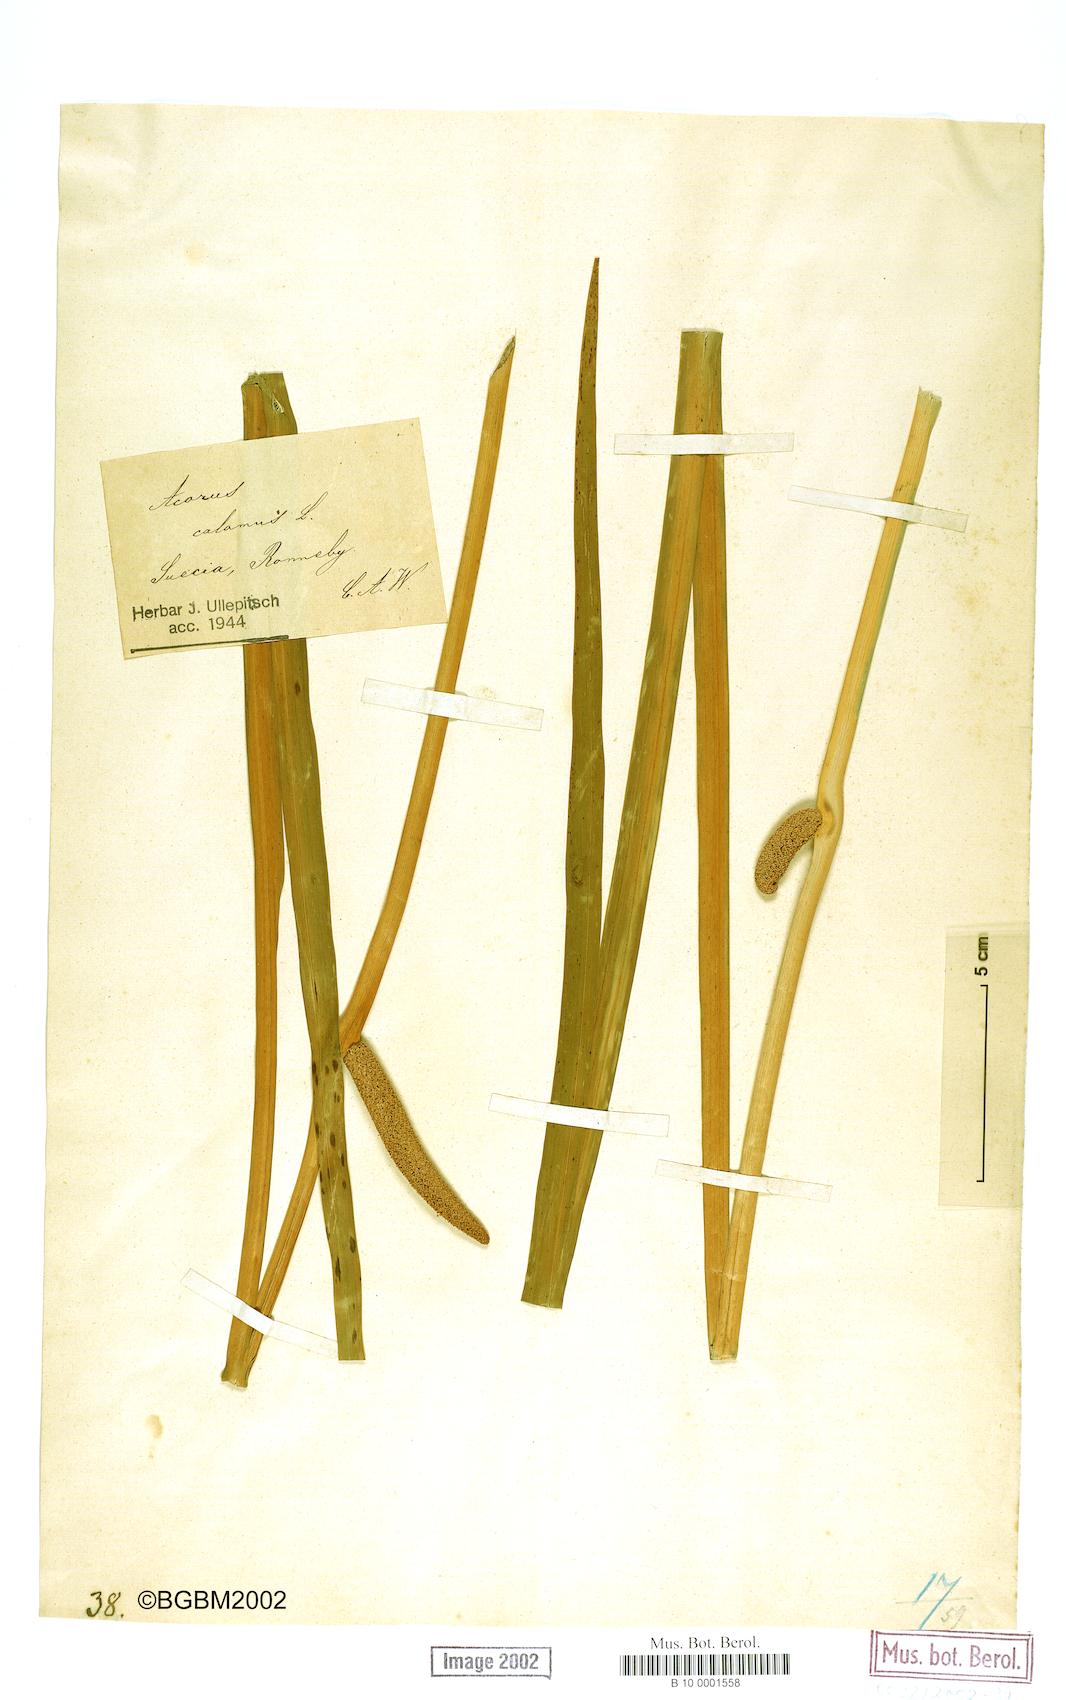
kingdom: Plantae
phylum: Tracheophyta
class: Liliopsida
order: Acorales
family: Acoraceae
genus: Acorus
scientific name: Acorus calamus
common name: Sweet-flag
